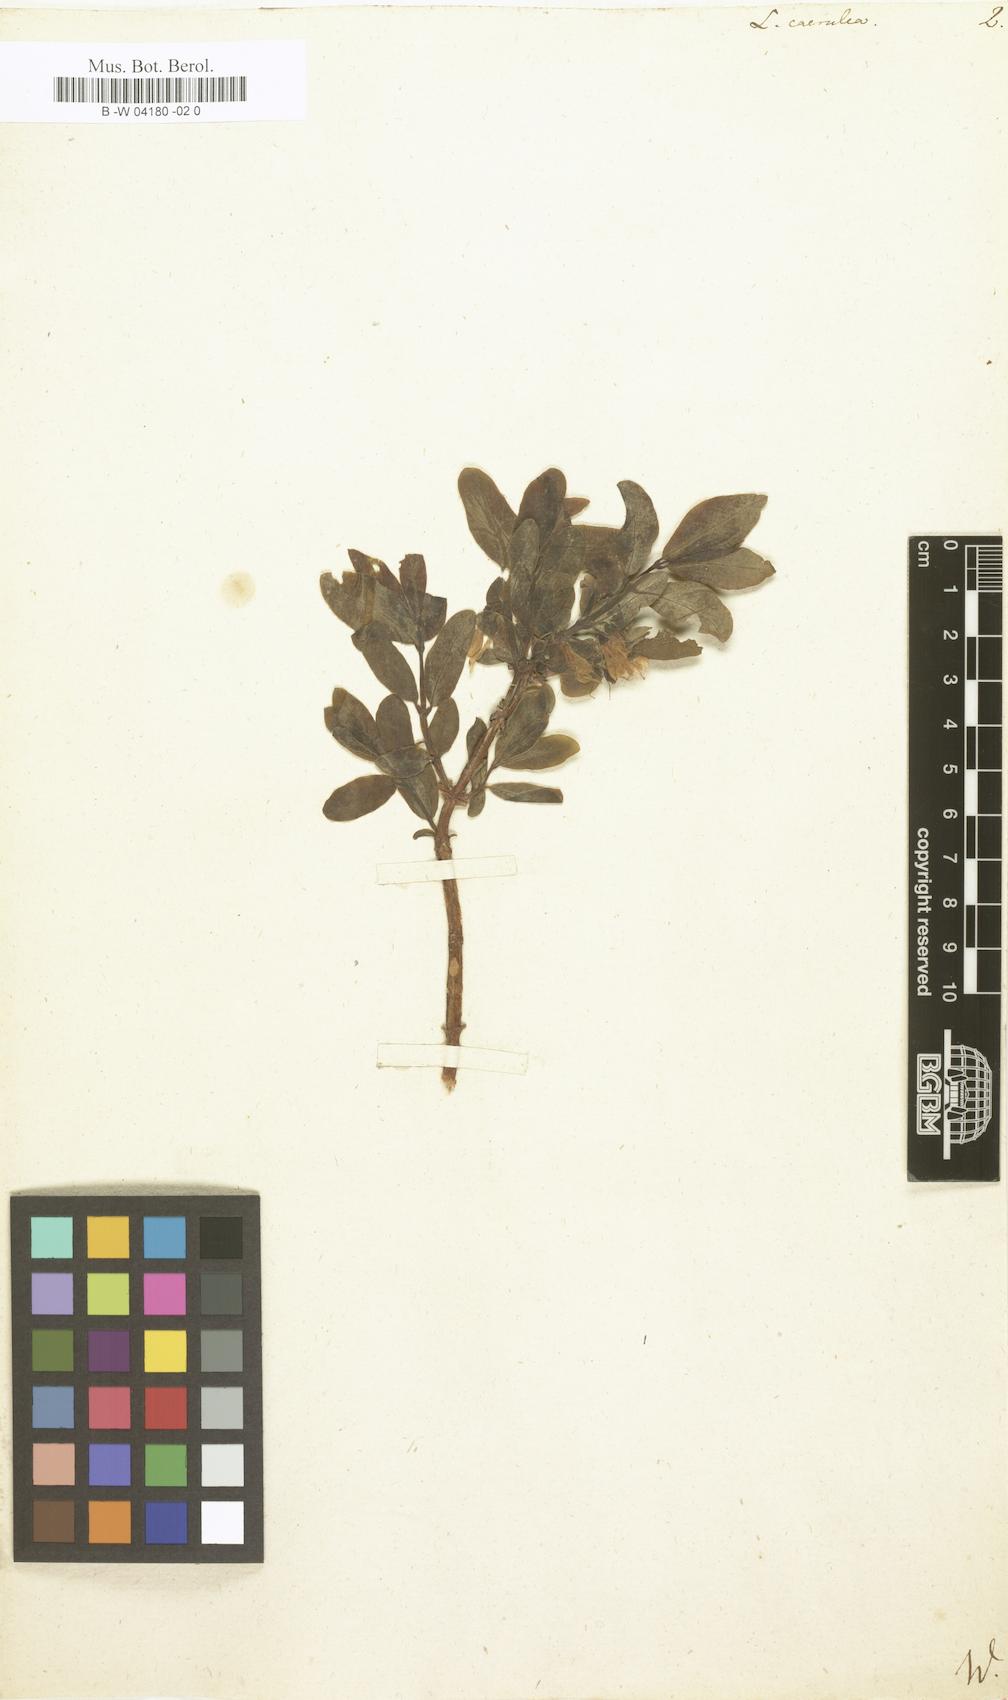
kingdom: Plantae
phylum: Tracheophyta
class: Magnoliopsida
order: Dipsacales
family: Caprifoliaceae
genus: Lonicera
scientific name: Lonicera caerulea
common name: Blue honeysuckle
